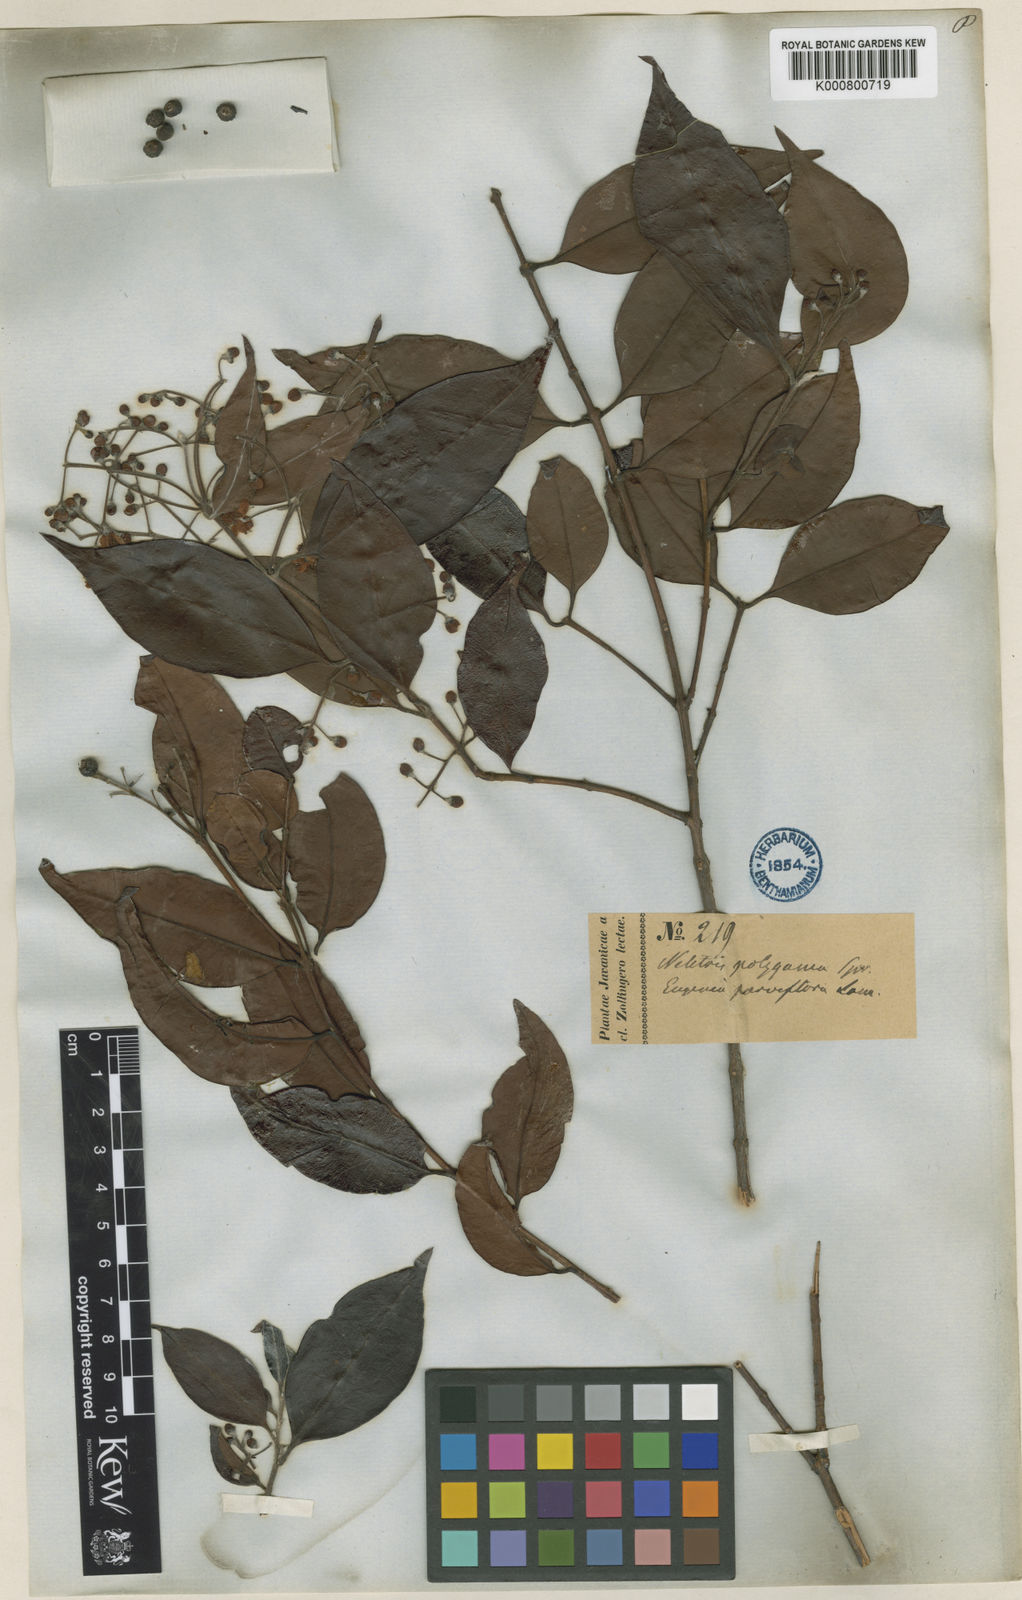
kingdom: Plantae
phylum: Tracheophyta
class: Magnoliopsida
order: Myrtales
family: Myrtaceae
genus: Decaspermum
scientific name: Decaspermum parviflorum
